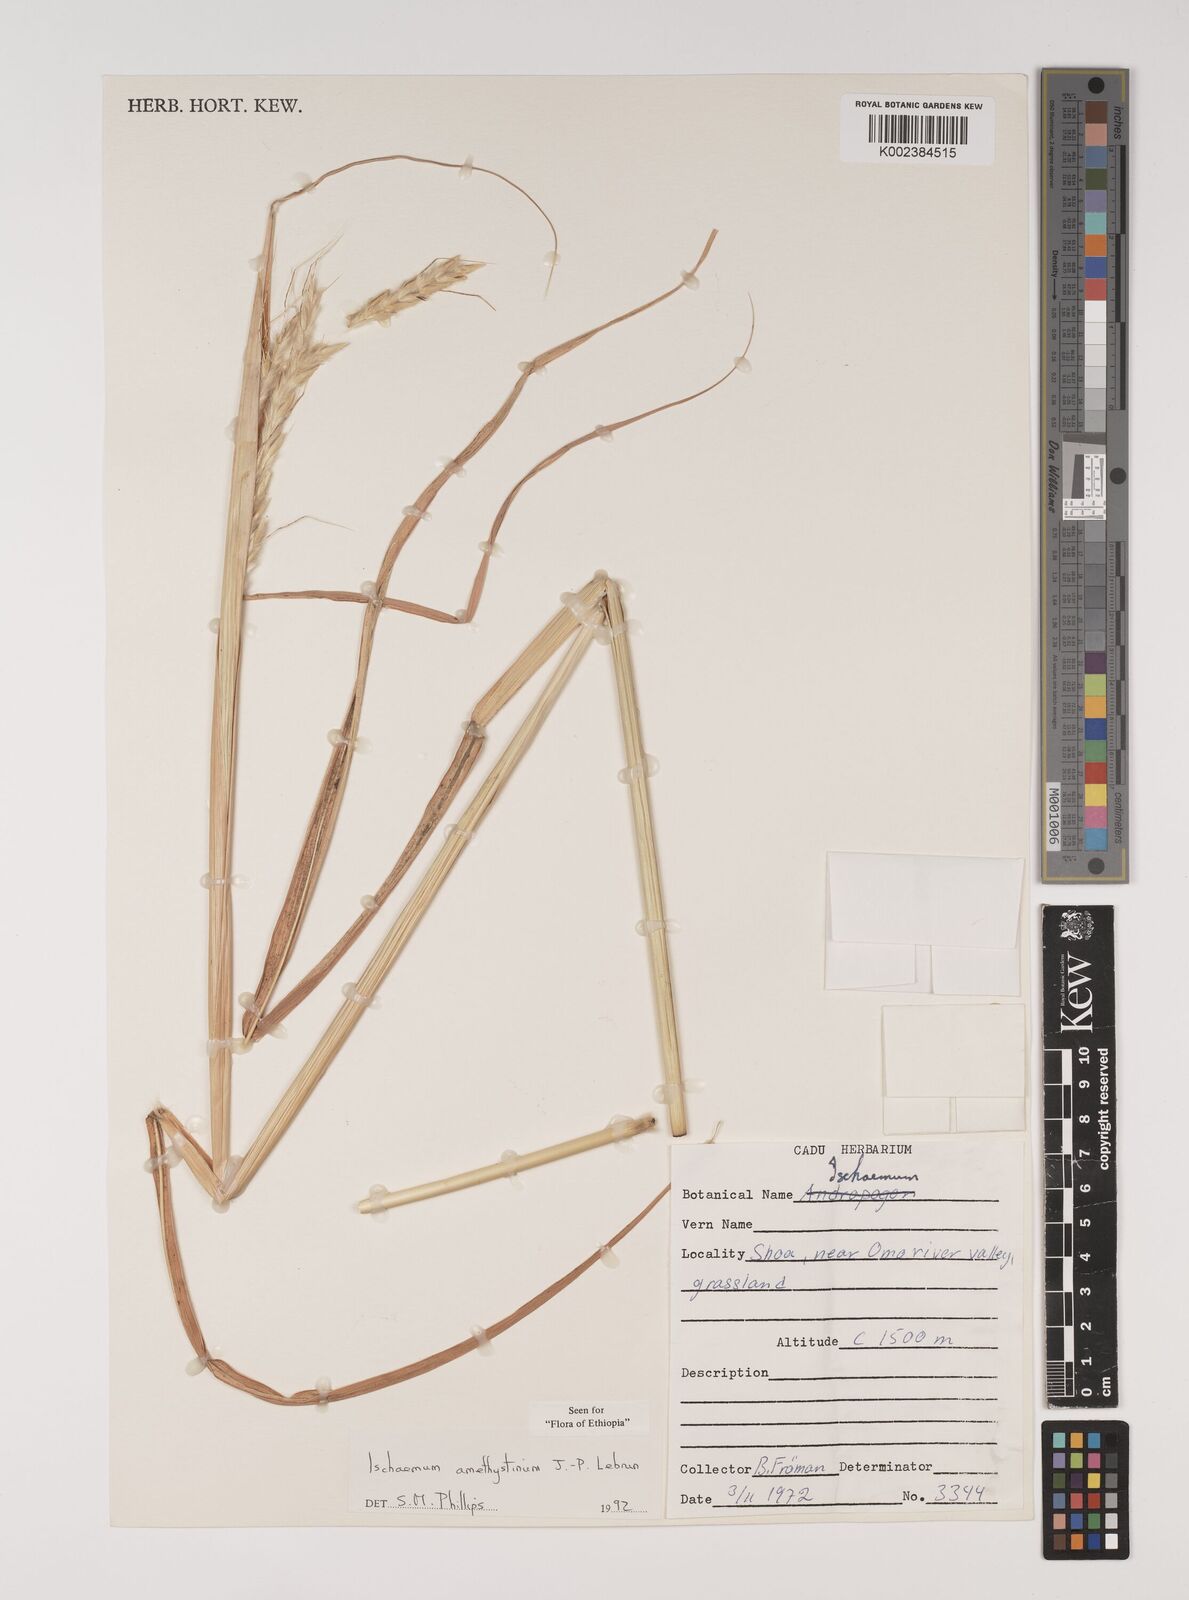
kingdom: Plantae
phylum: Tracheophyta
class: Liliopsida
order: Poales
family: Poaceae
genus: Ischaemum
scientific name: Ischaemum amethystinum
